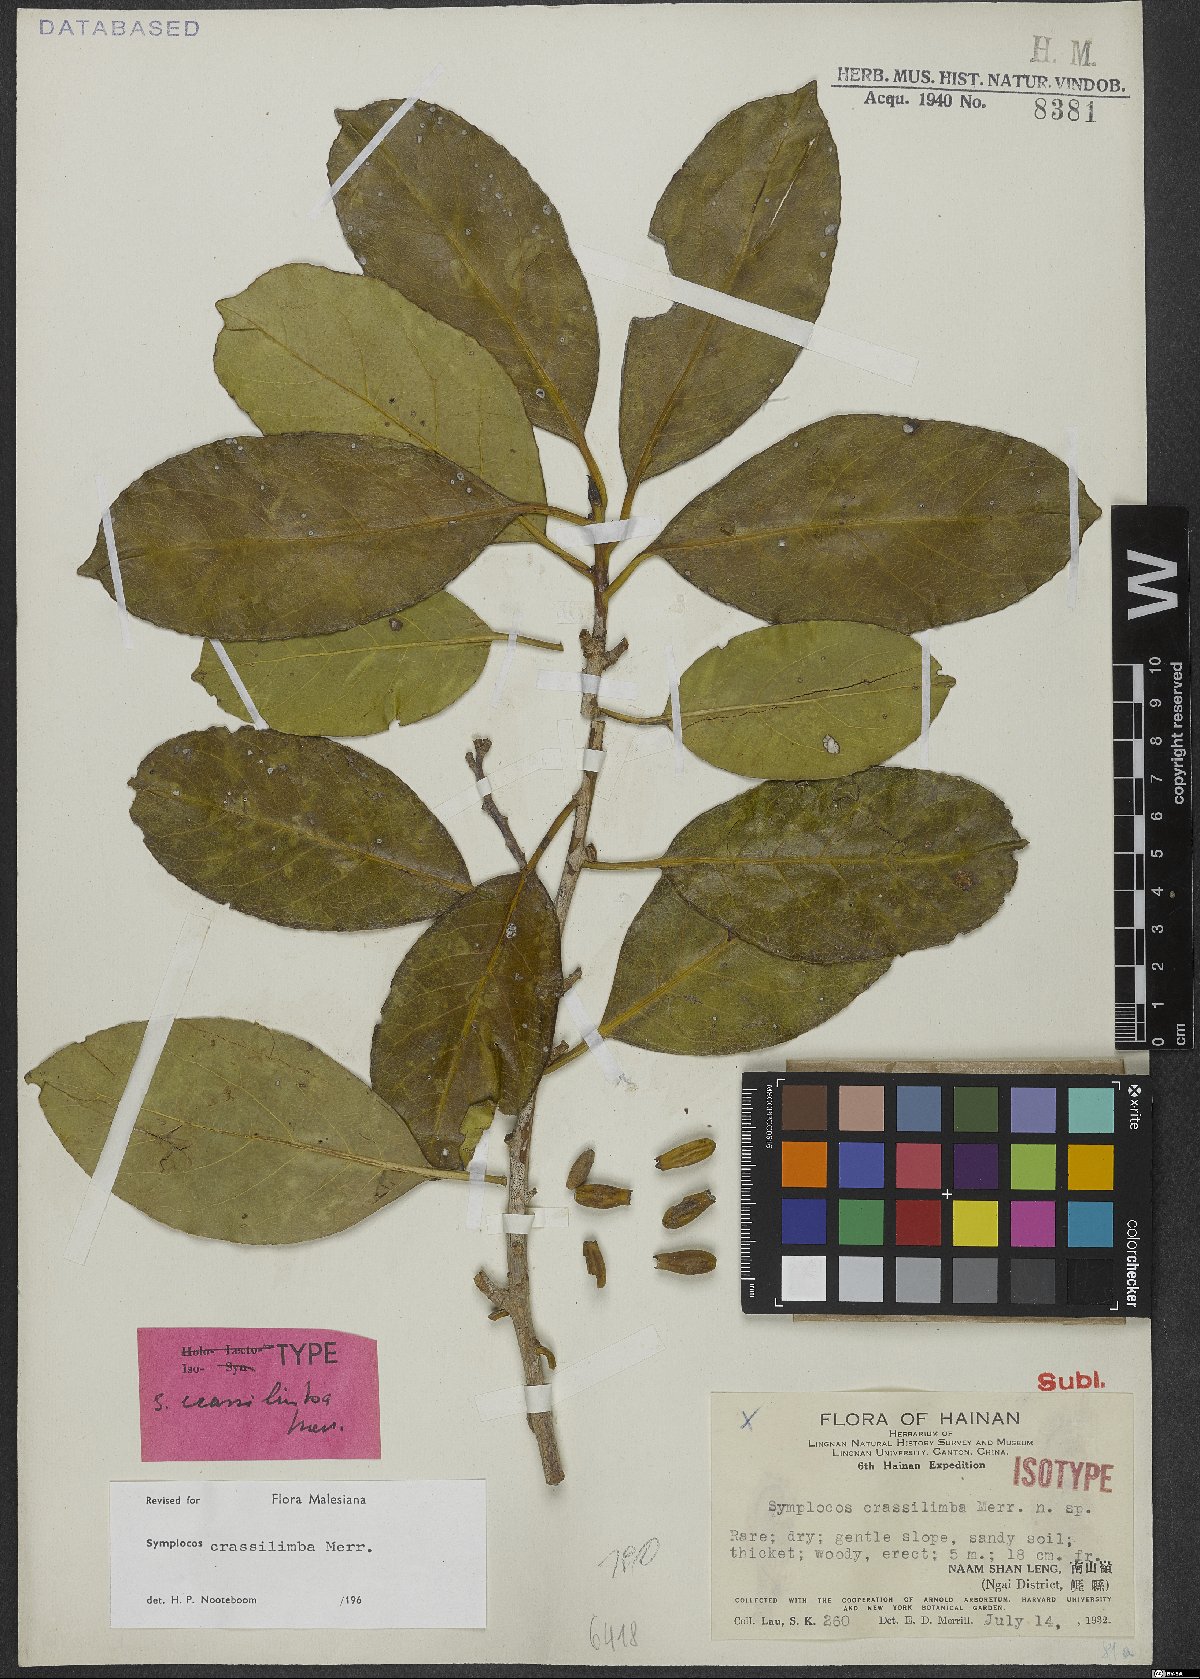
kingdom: Plantae
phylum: Tracheophyta
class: Magnoliopsida
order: Ericales
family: Symplocaceae
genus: Symplocos
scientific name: Symplocos crassilimba
